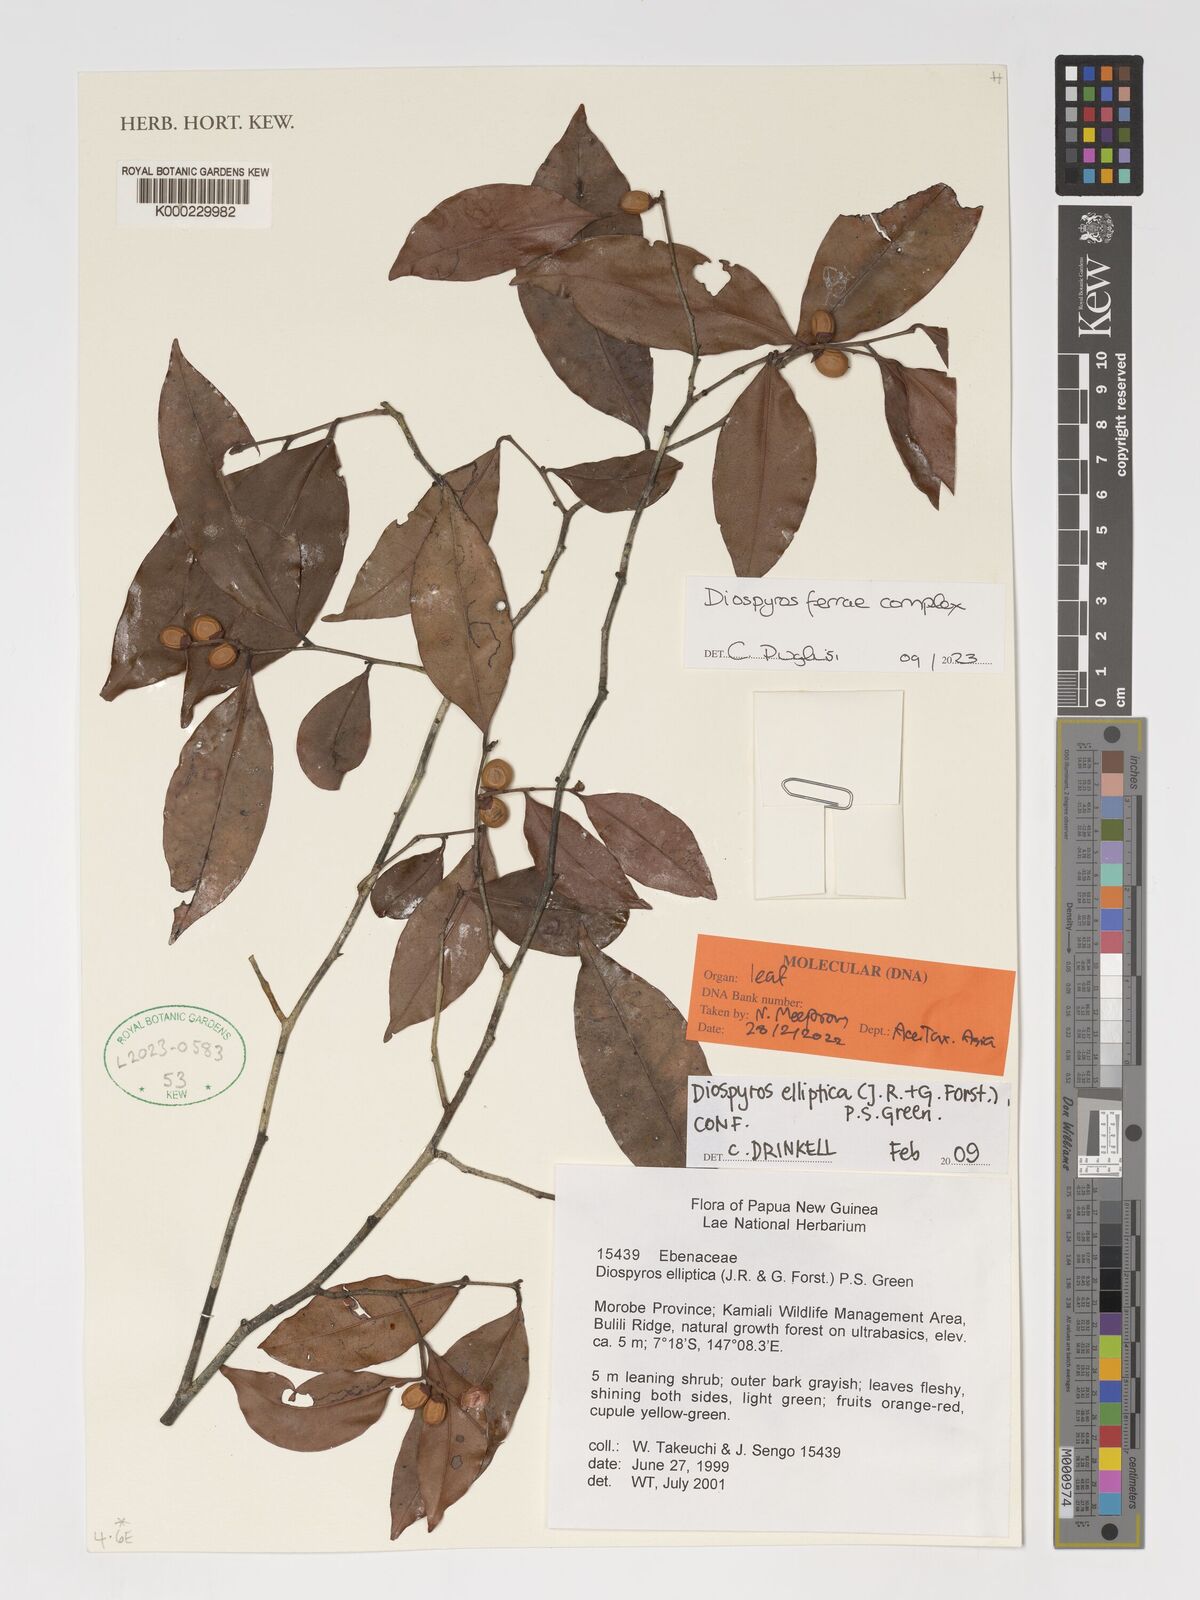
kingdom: Plantae
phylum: Tracheophyta
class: Magnoliopsida
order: Ericales
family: Ebenaceae
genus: Diospyros
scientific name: Diospyros ferrea
